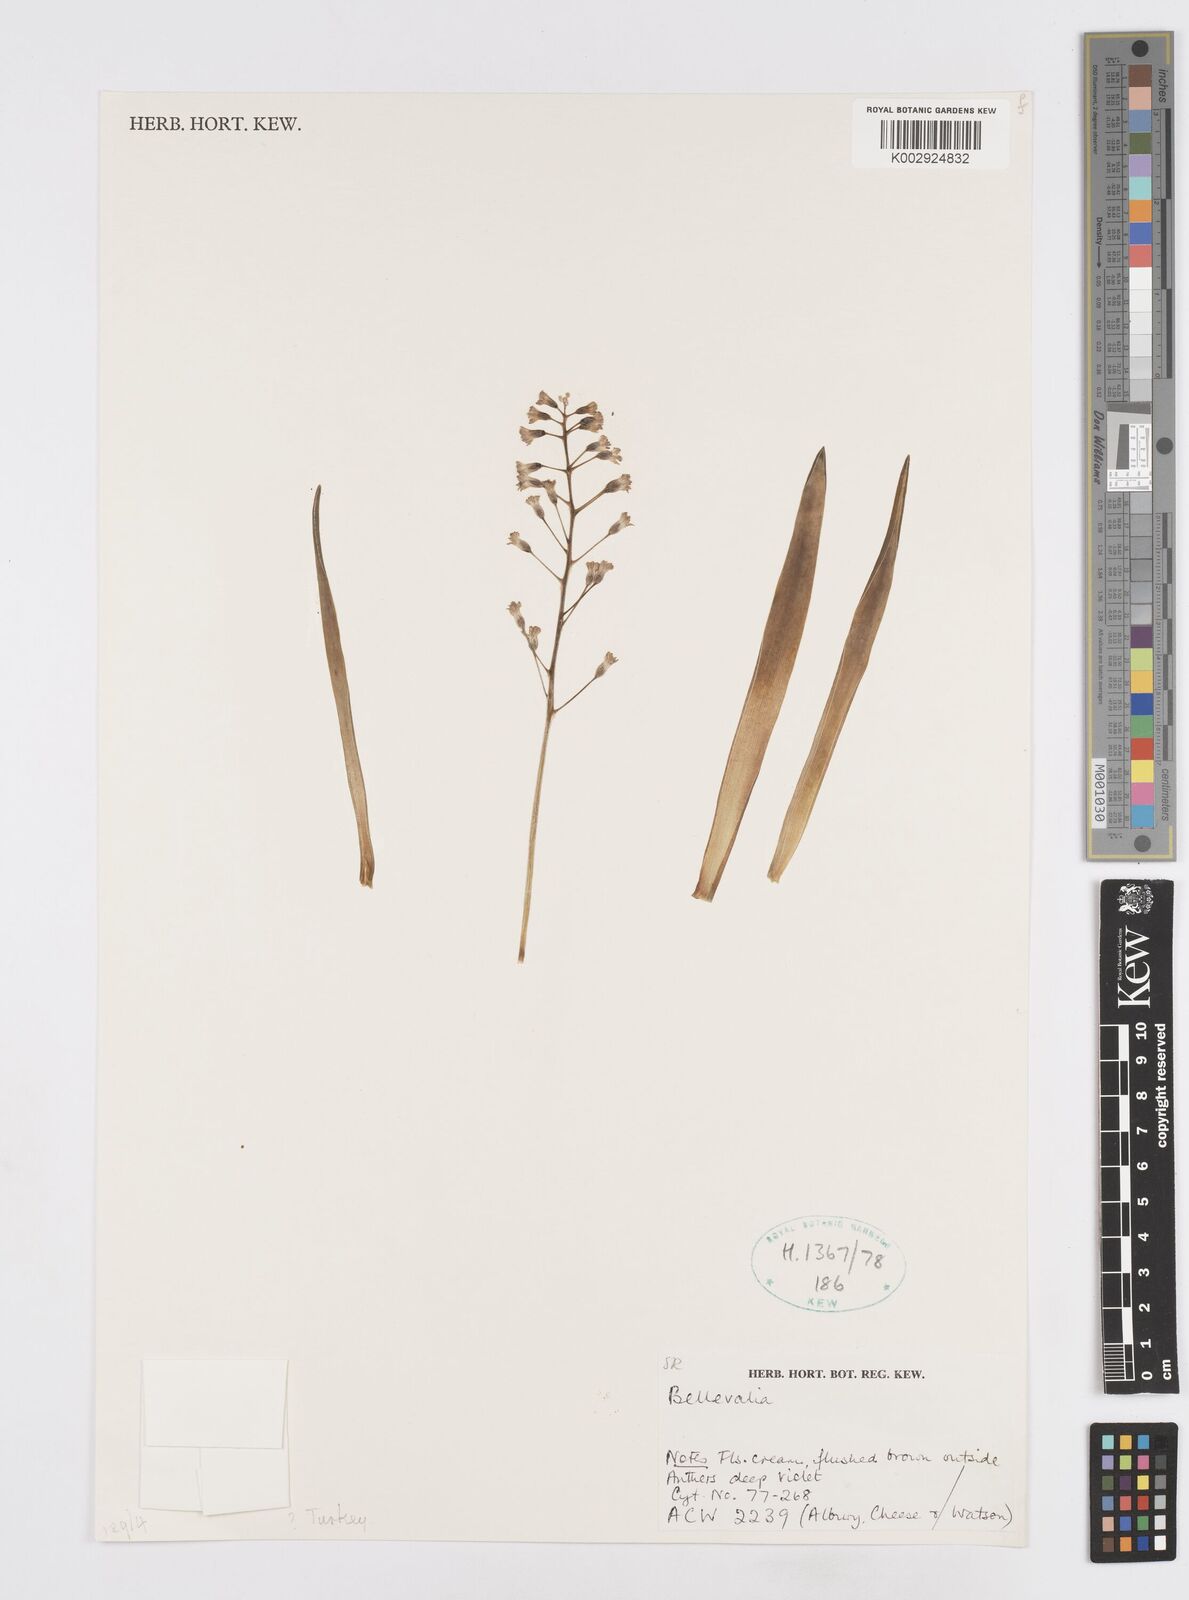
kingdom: Plantae
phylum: Tracheophyta
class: Liliopsida
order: Asparagales
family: Asparagaceae
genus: Bellevalia
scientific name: Bellevalia
